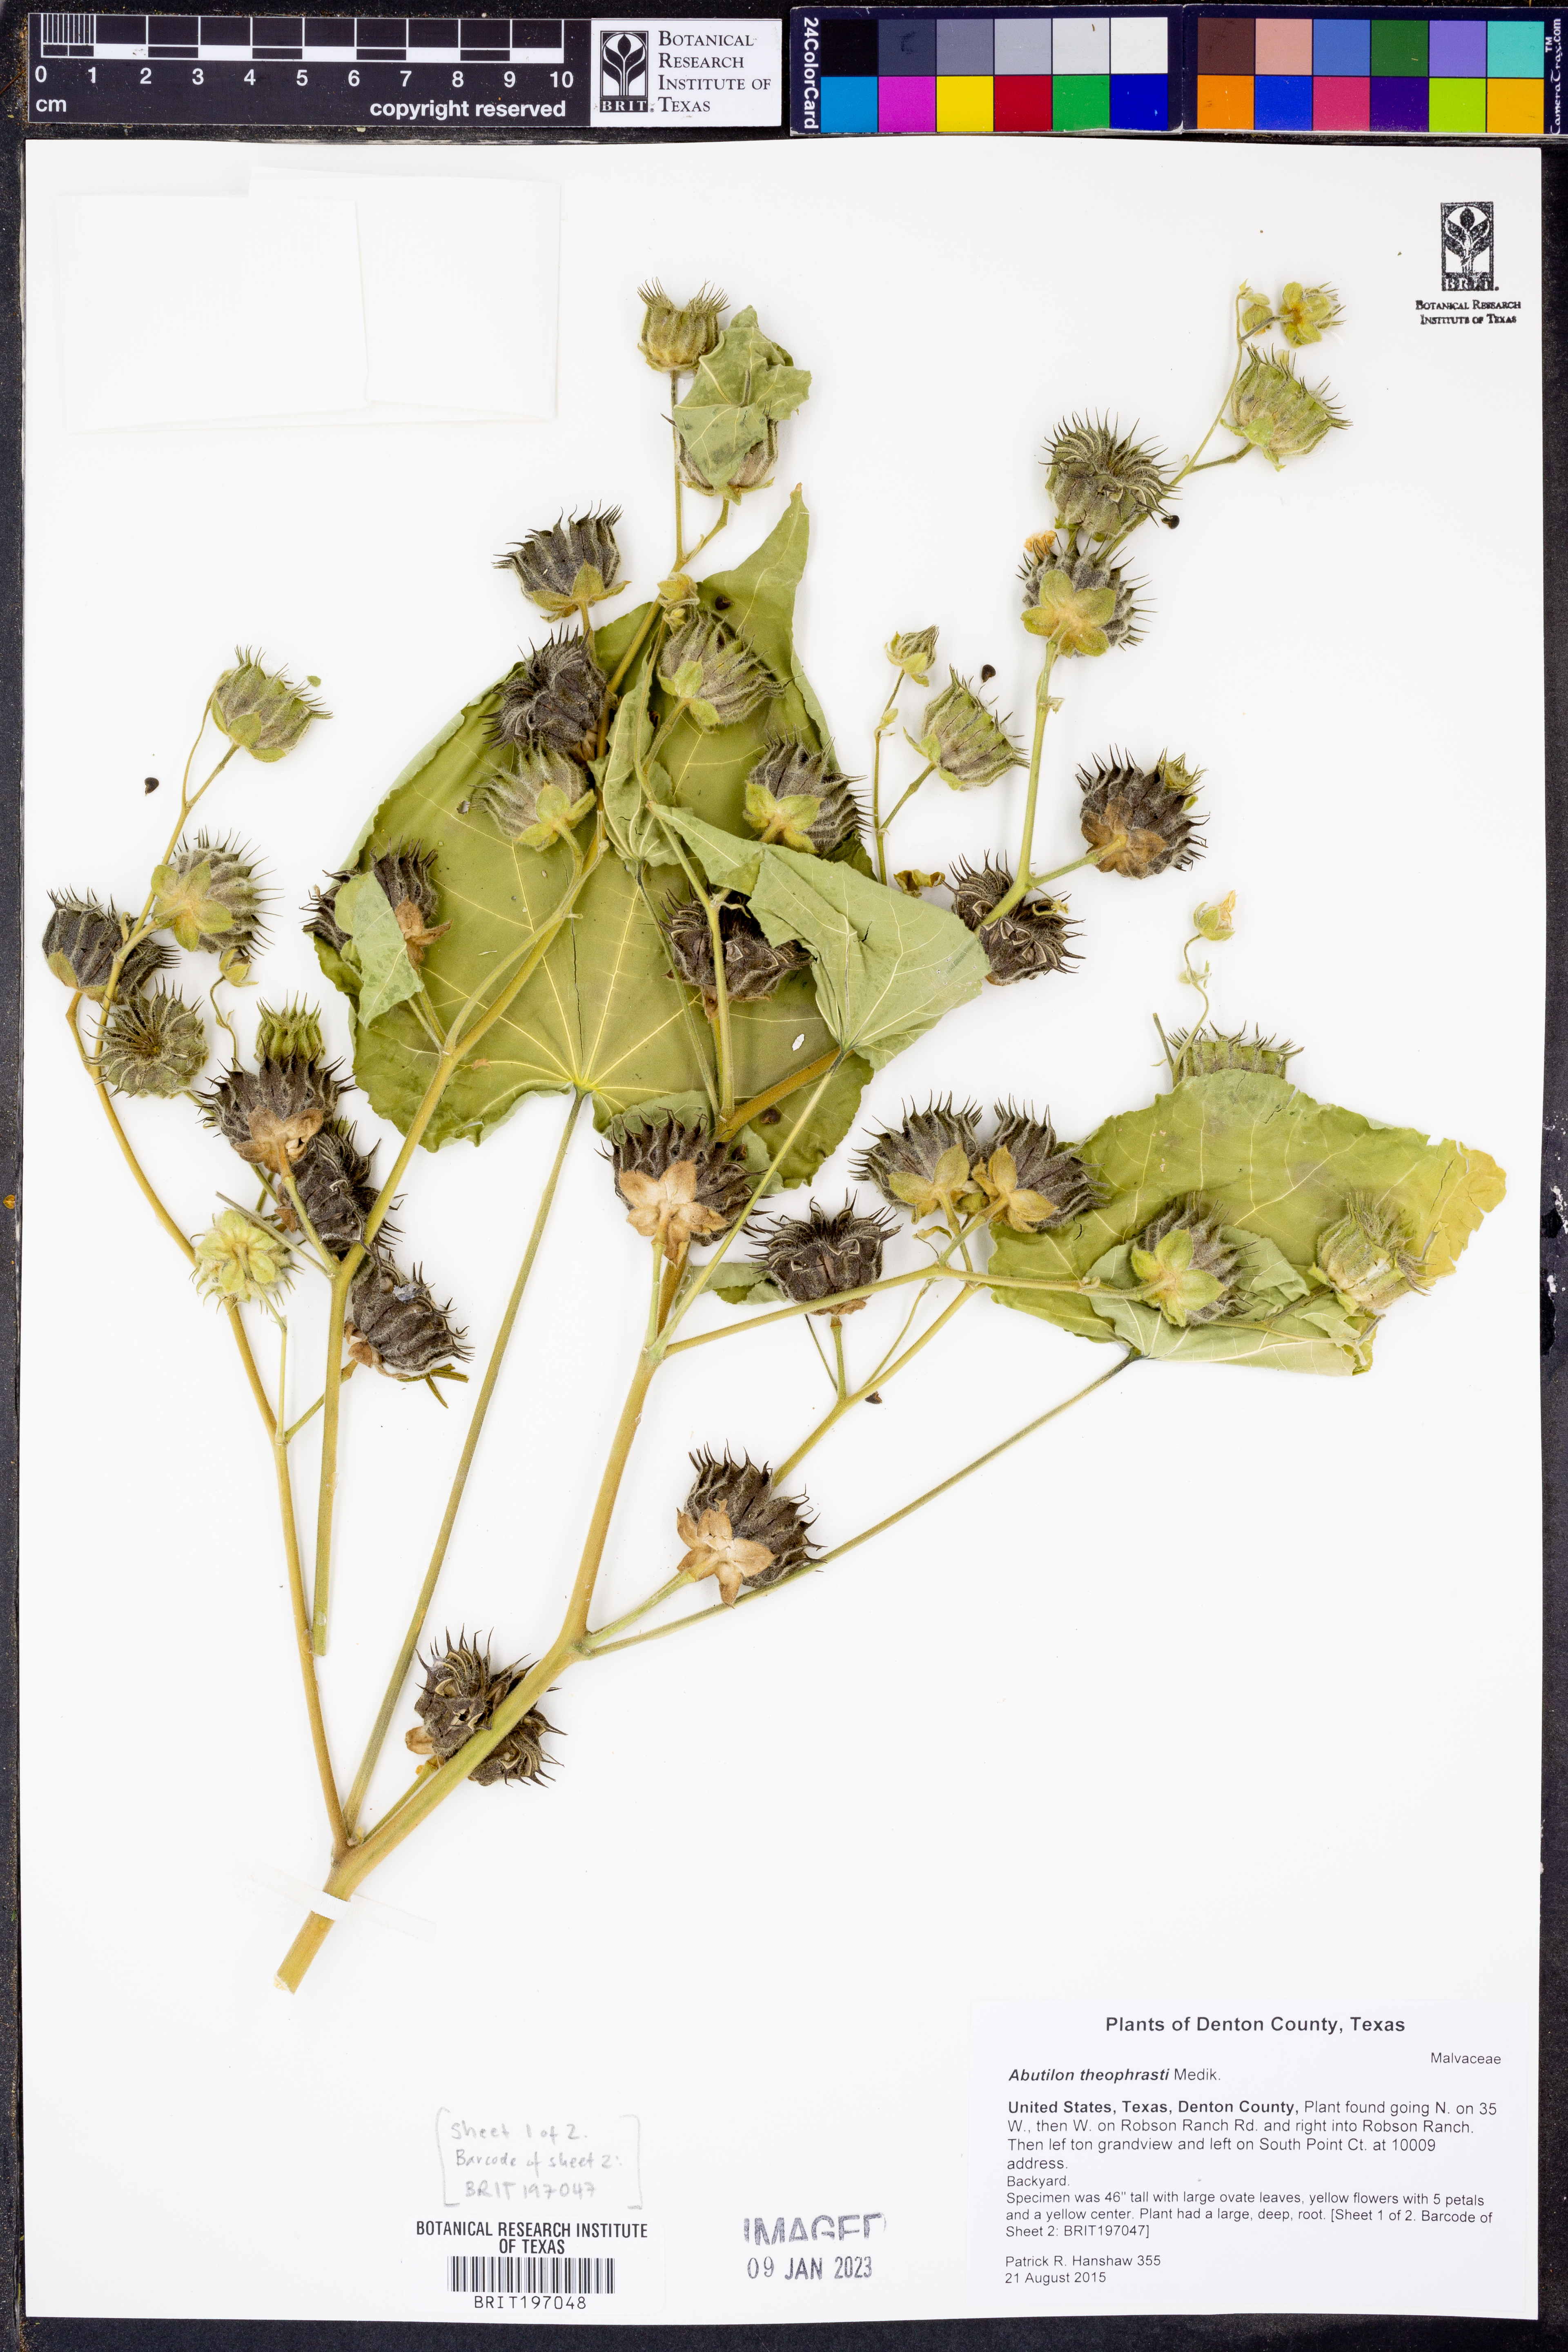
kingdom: Plantae
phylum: Tracheophyta
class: Magnoliopsida
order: Malvales
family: Malvaceae
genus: Abutilon
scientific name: Abutilon theophrasti
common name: Velvetleaf
